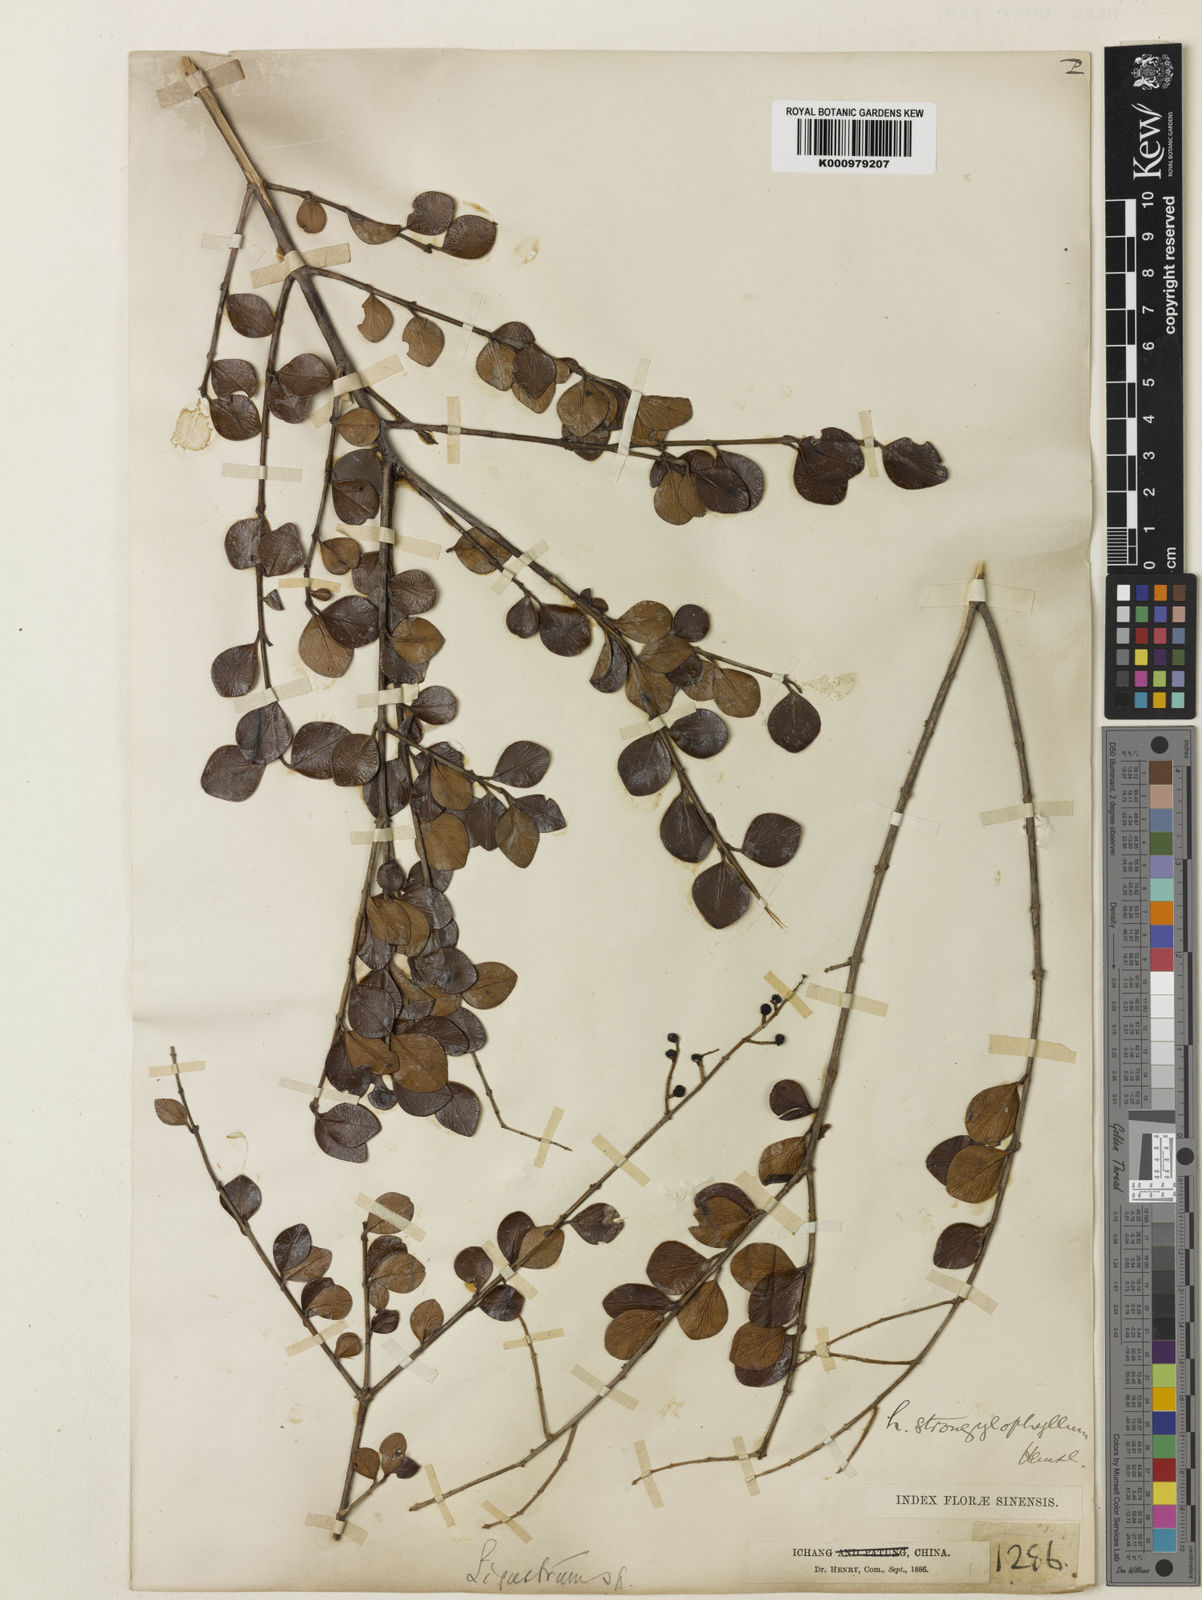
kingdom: Plantae
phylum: Tracheophyta
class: Magnoliopsida
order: Lamiales
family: Oleaceae
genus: Ligustrum
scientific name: Ligustrum strongylophyllum
